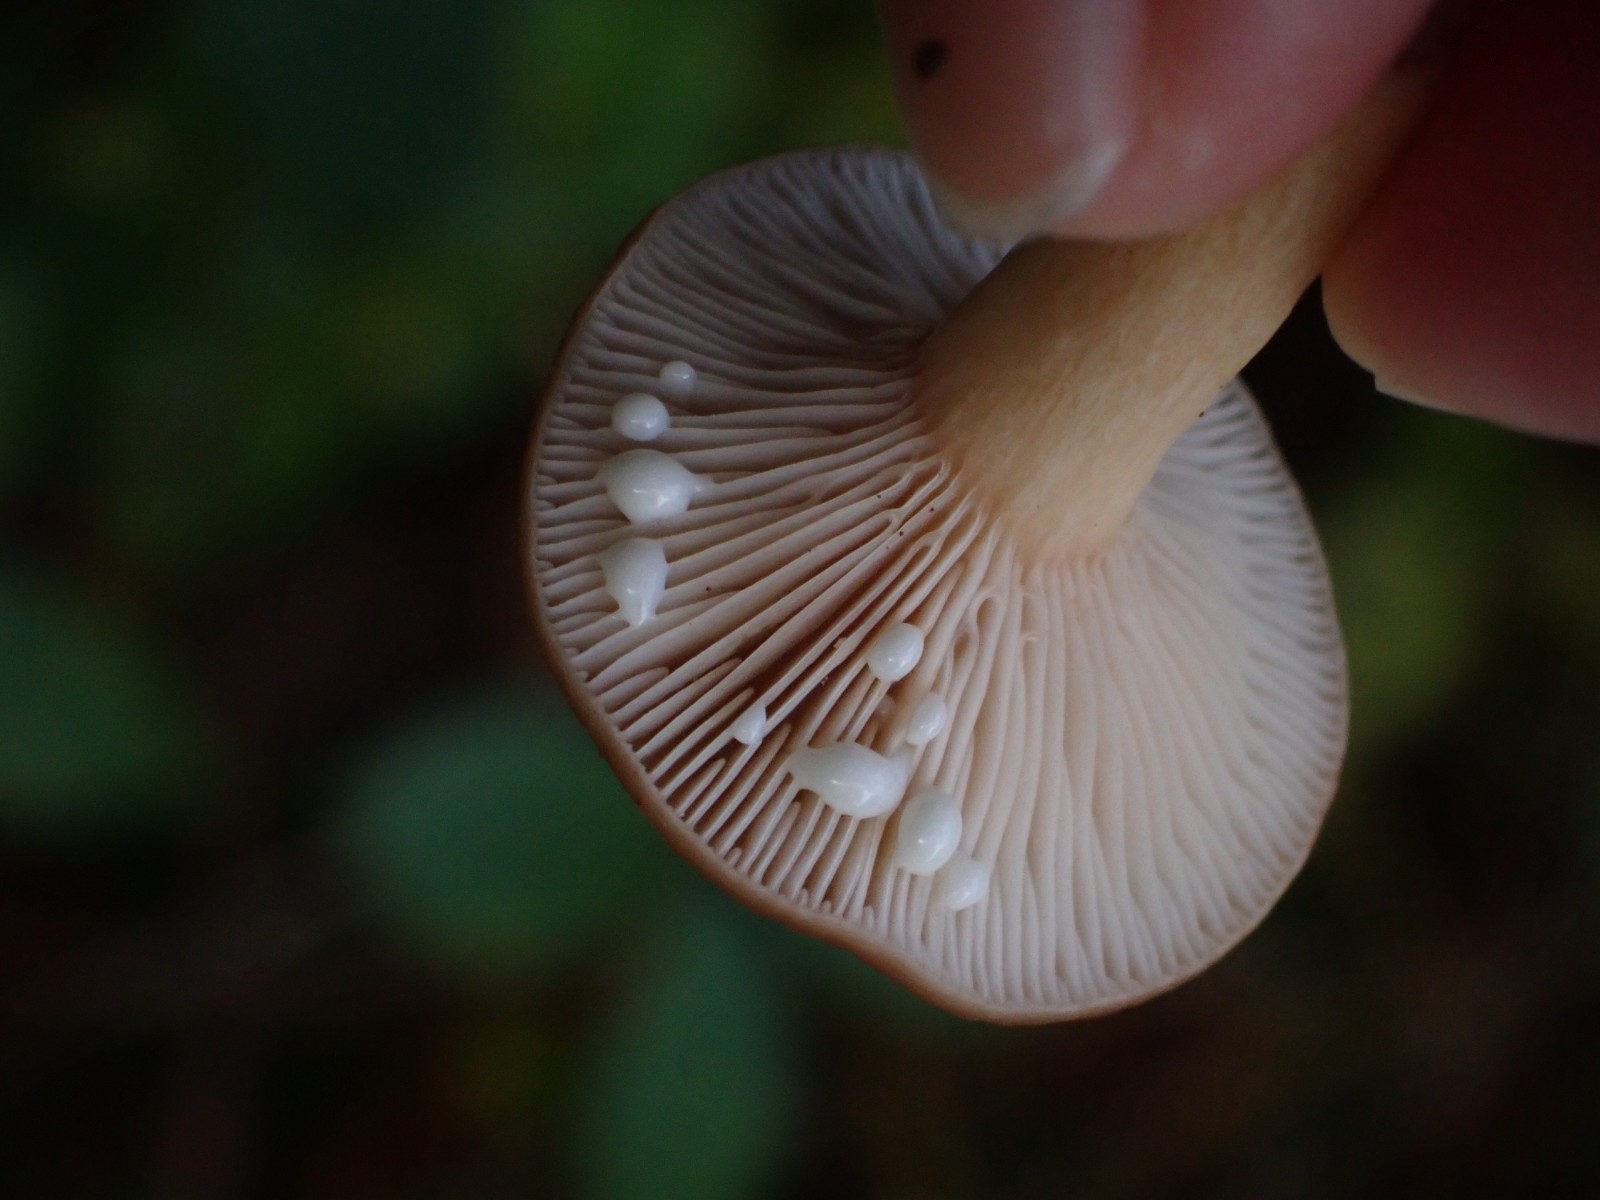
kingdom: Fungi
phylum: Basidiomycota
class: Agaricomycetes
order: Russulales
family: Russulaceae
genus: Lactarius
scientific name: Lactarius subdulcis
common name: sødlig mælkehat
